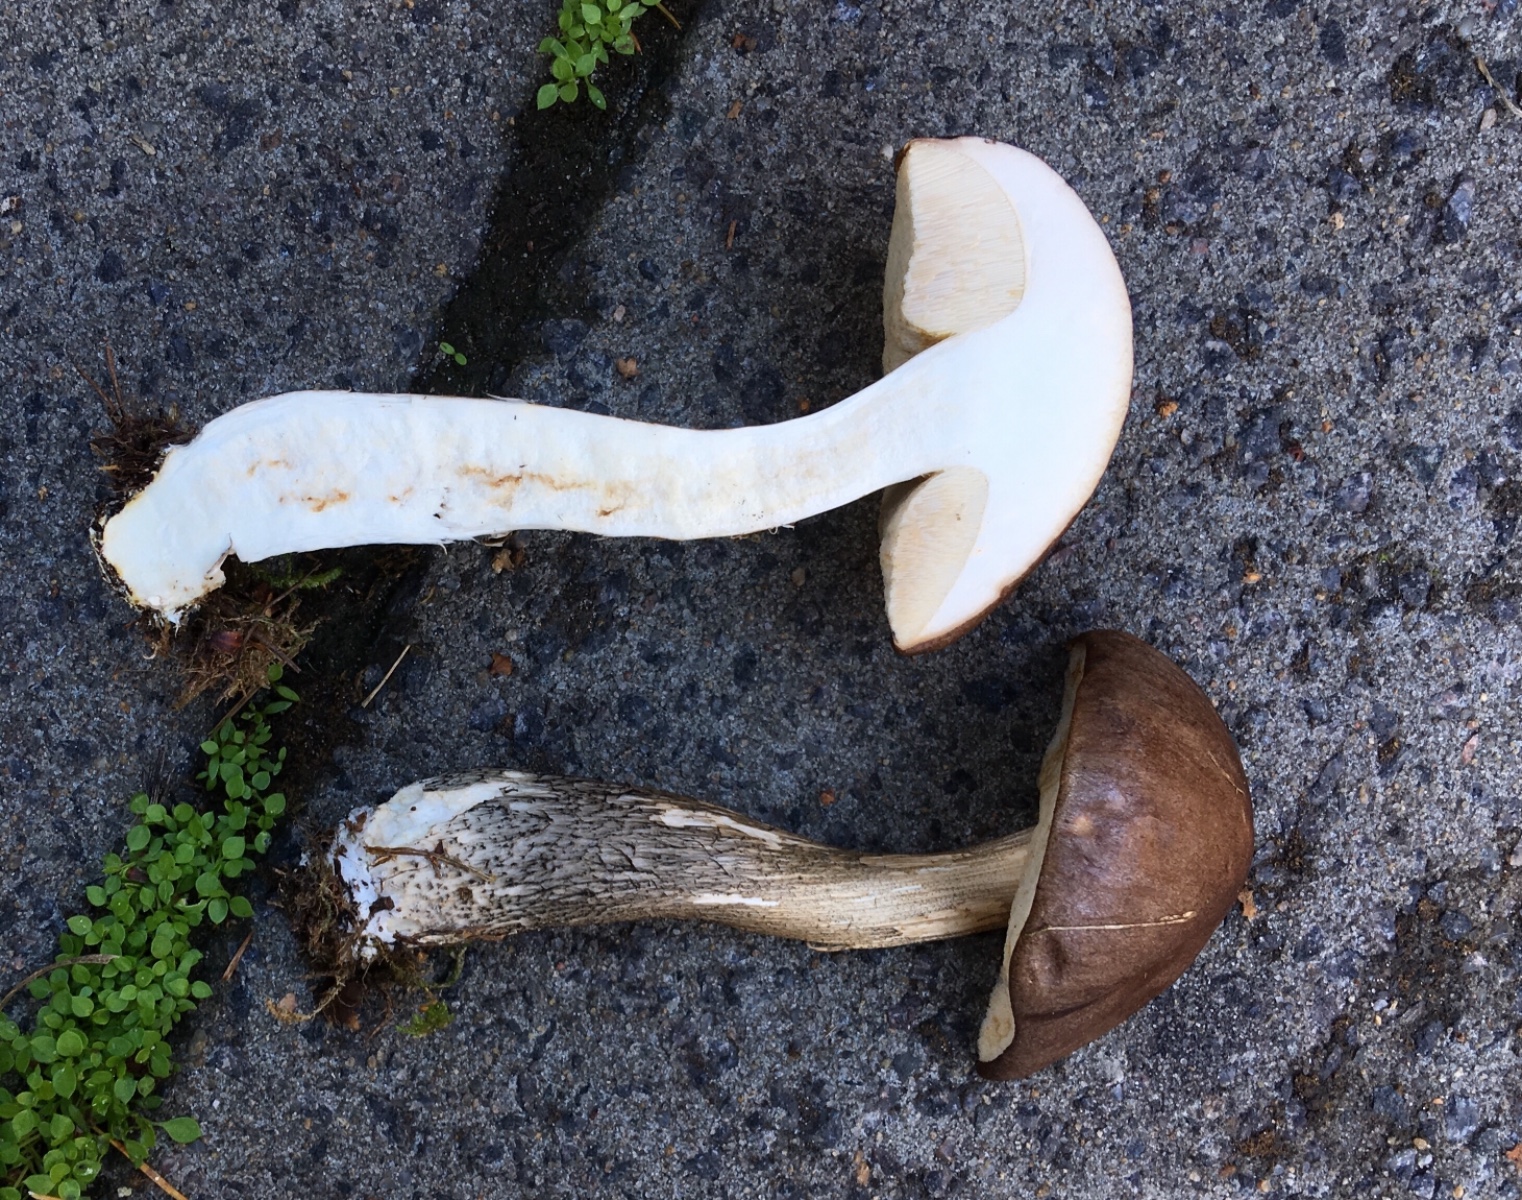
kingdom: Fungi
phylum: Basidiomycota
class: Agaricomycetes
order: Boletales
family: Boletaceae
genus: Leccinum
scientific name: Leccinum scabrum
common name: brun skælrørhat
